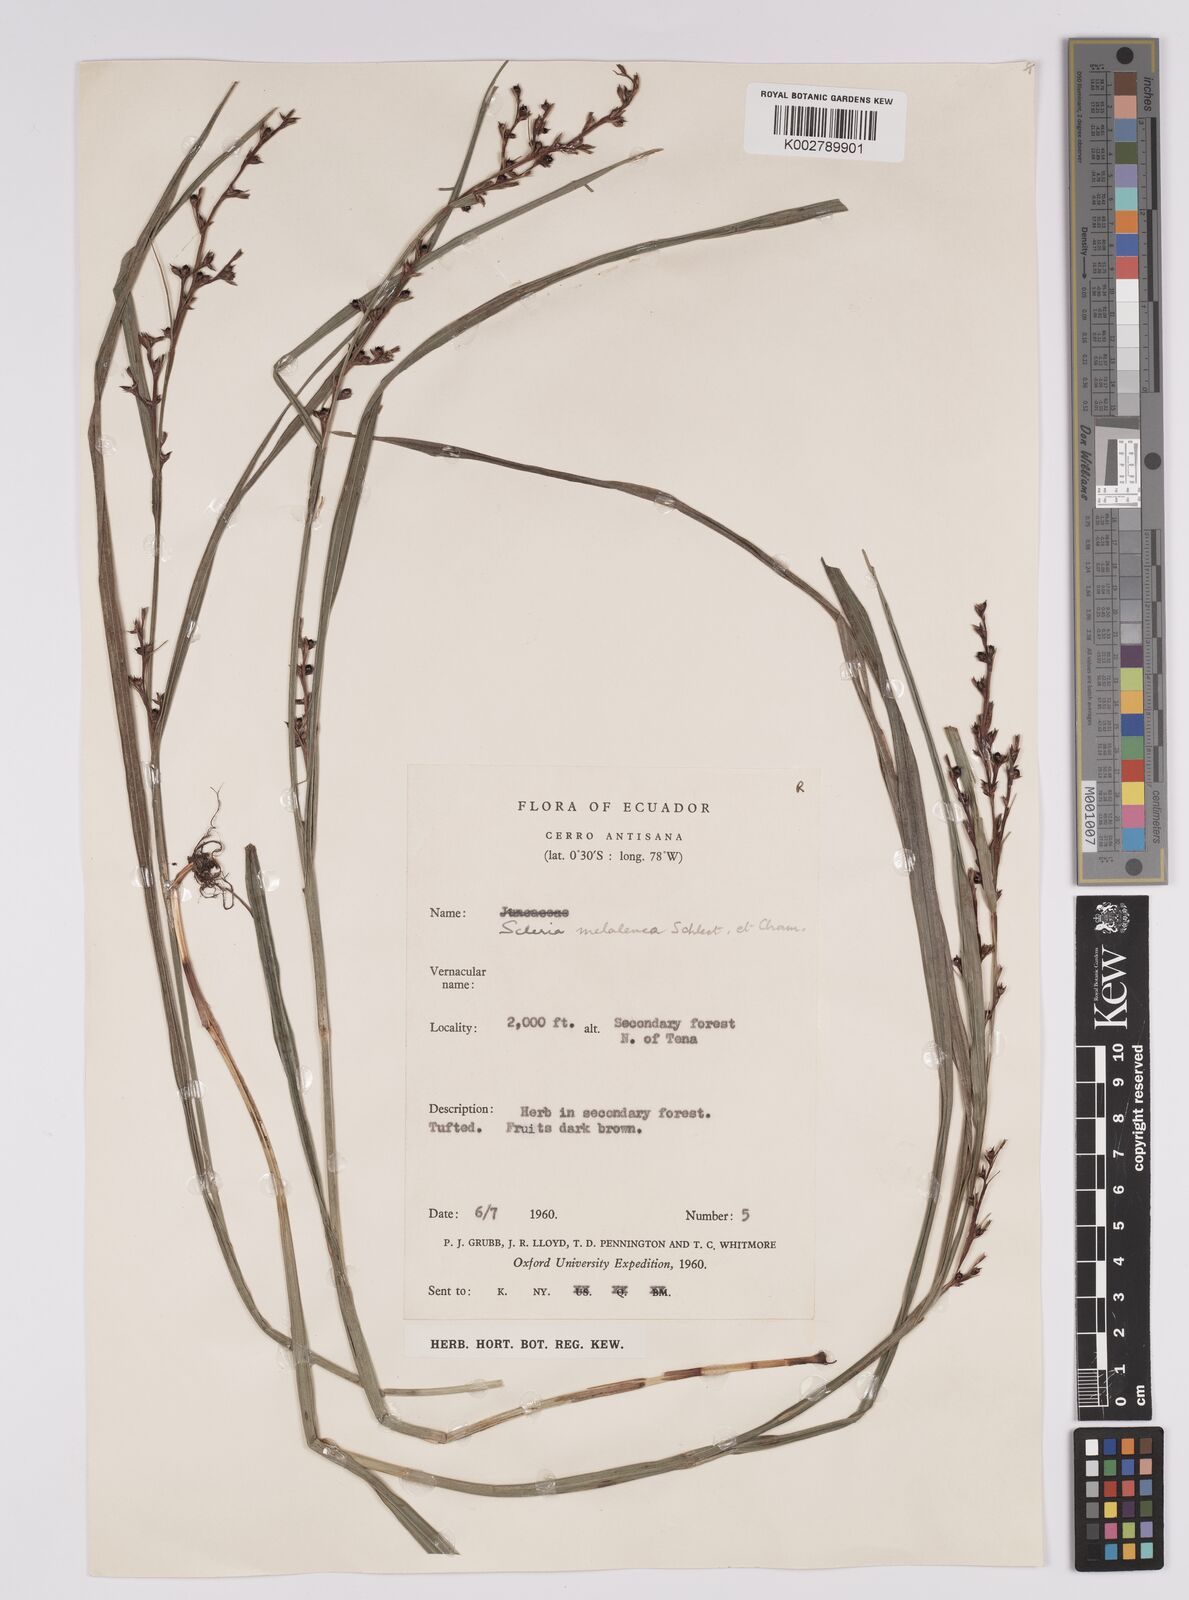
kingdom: Plantae
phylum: Tracheophyta
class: Liliopsida
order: Poales
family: Cyperaceae
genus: Scleria
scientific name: Scleria gaertneri
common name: Cortadera blanca
